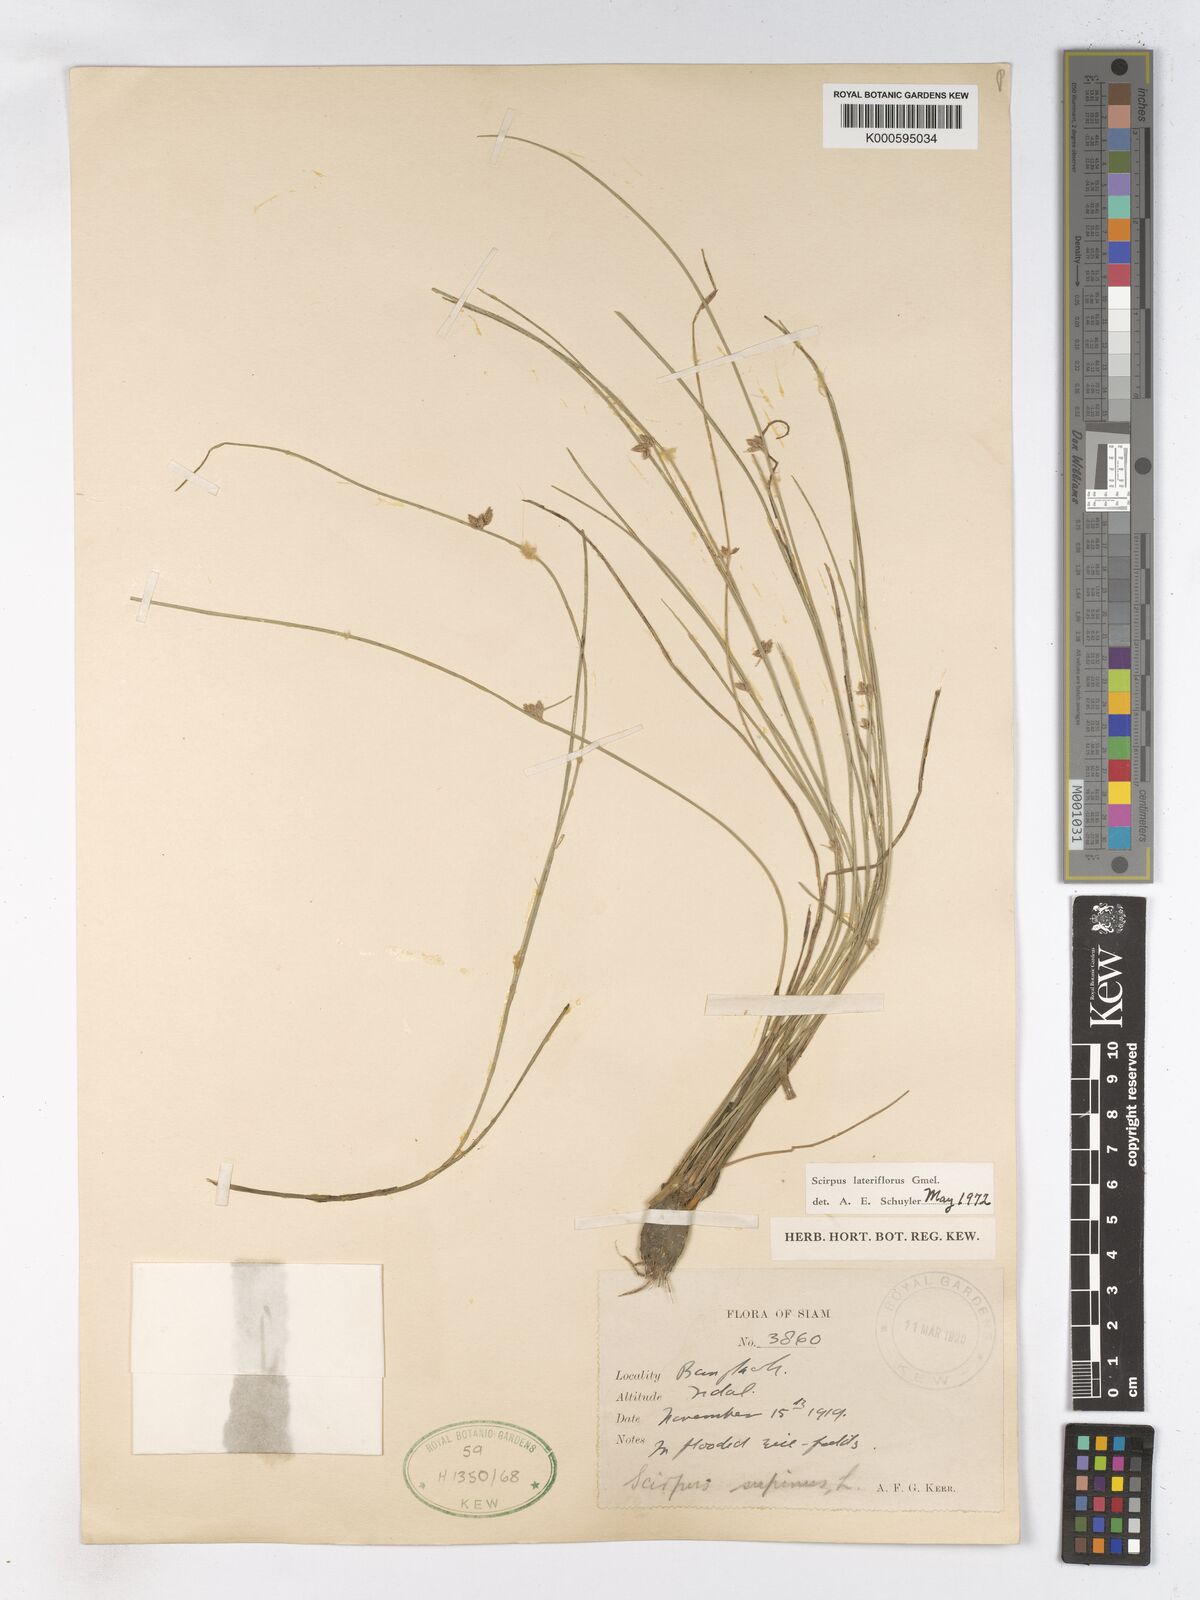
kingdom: Plantae
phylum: Tracheophyta
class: Liliopsida
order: Poales
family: Cyperaceae
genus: Schoenoplectiella
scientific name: Schoenoplectiella supina
